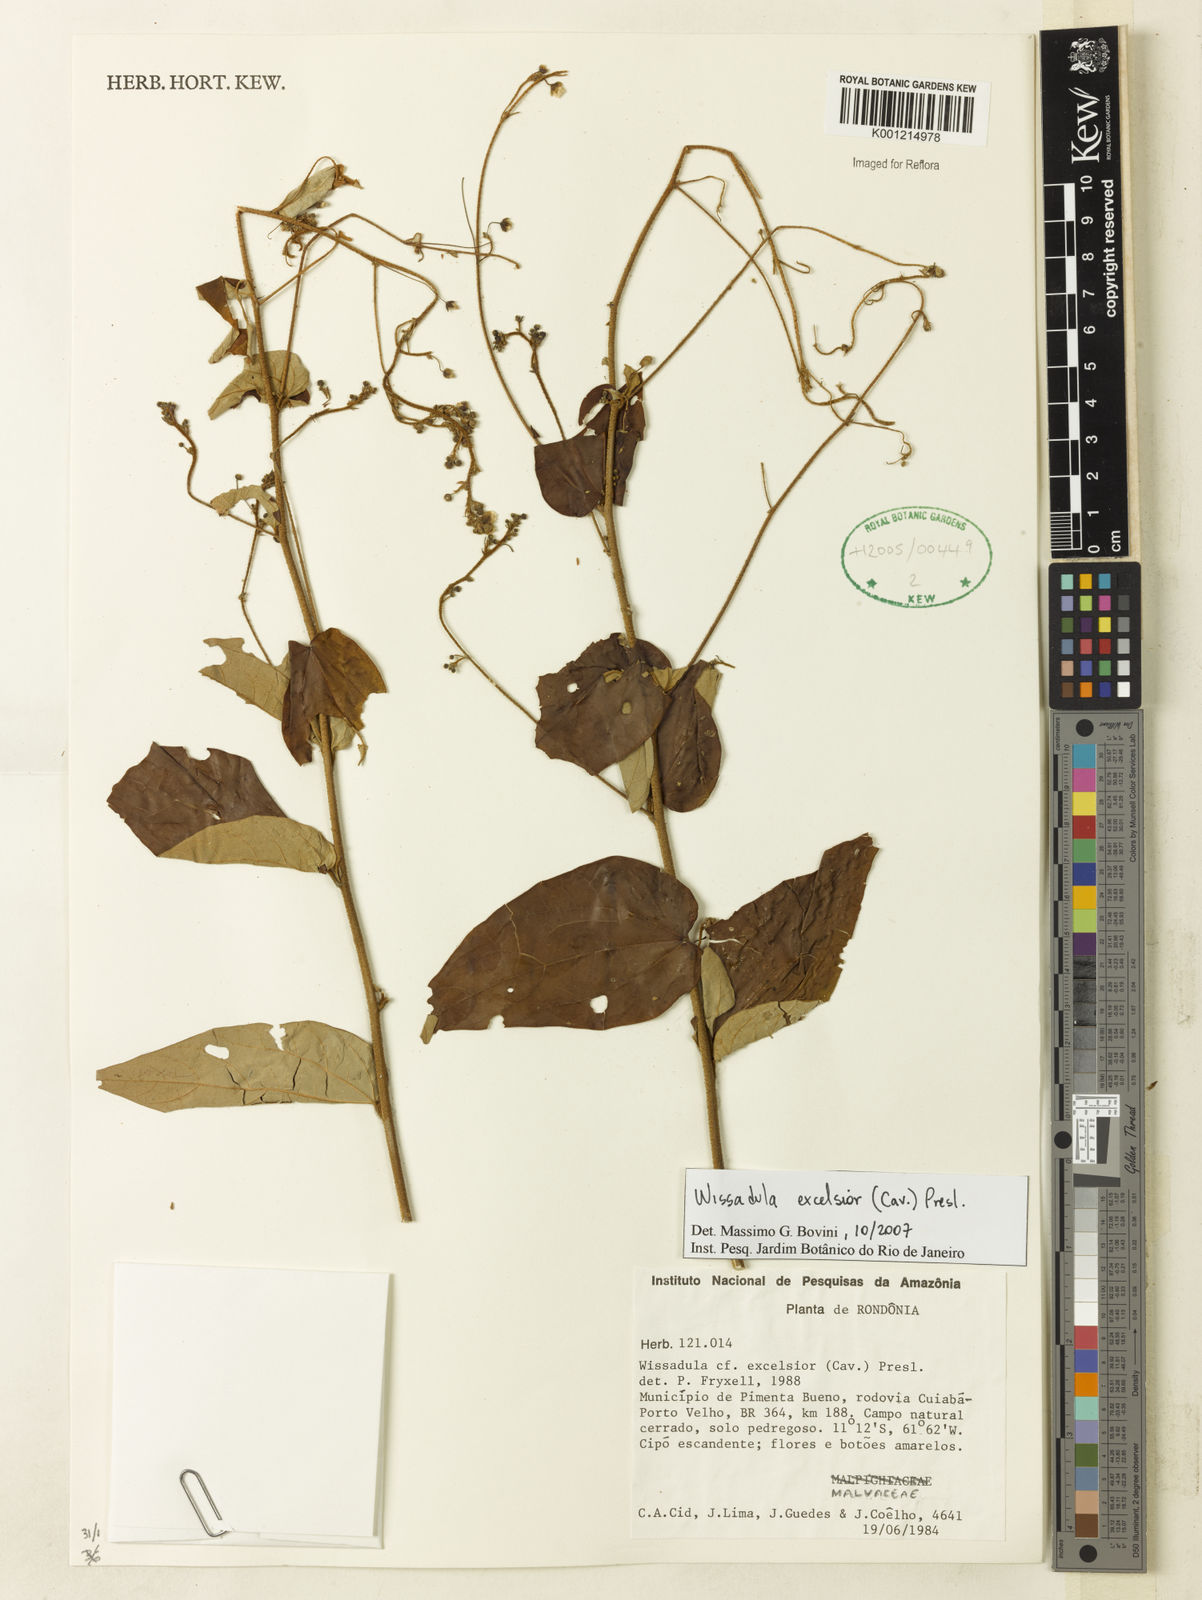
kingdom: Plantae
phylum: Tracheophyta
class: Magnoliopsida
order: Malvales
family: Malvaceae
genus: Wissadula
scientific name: Wissadula excelsior
